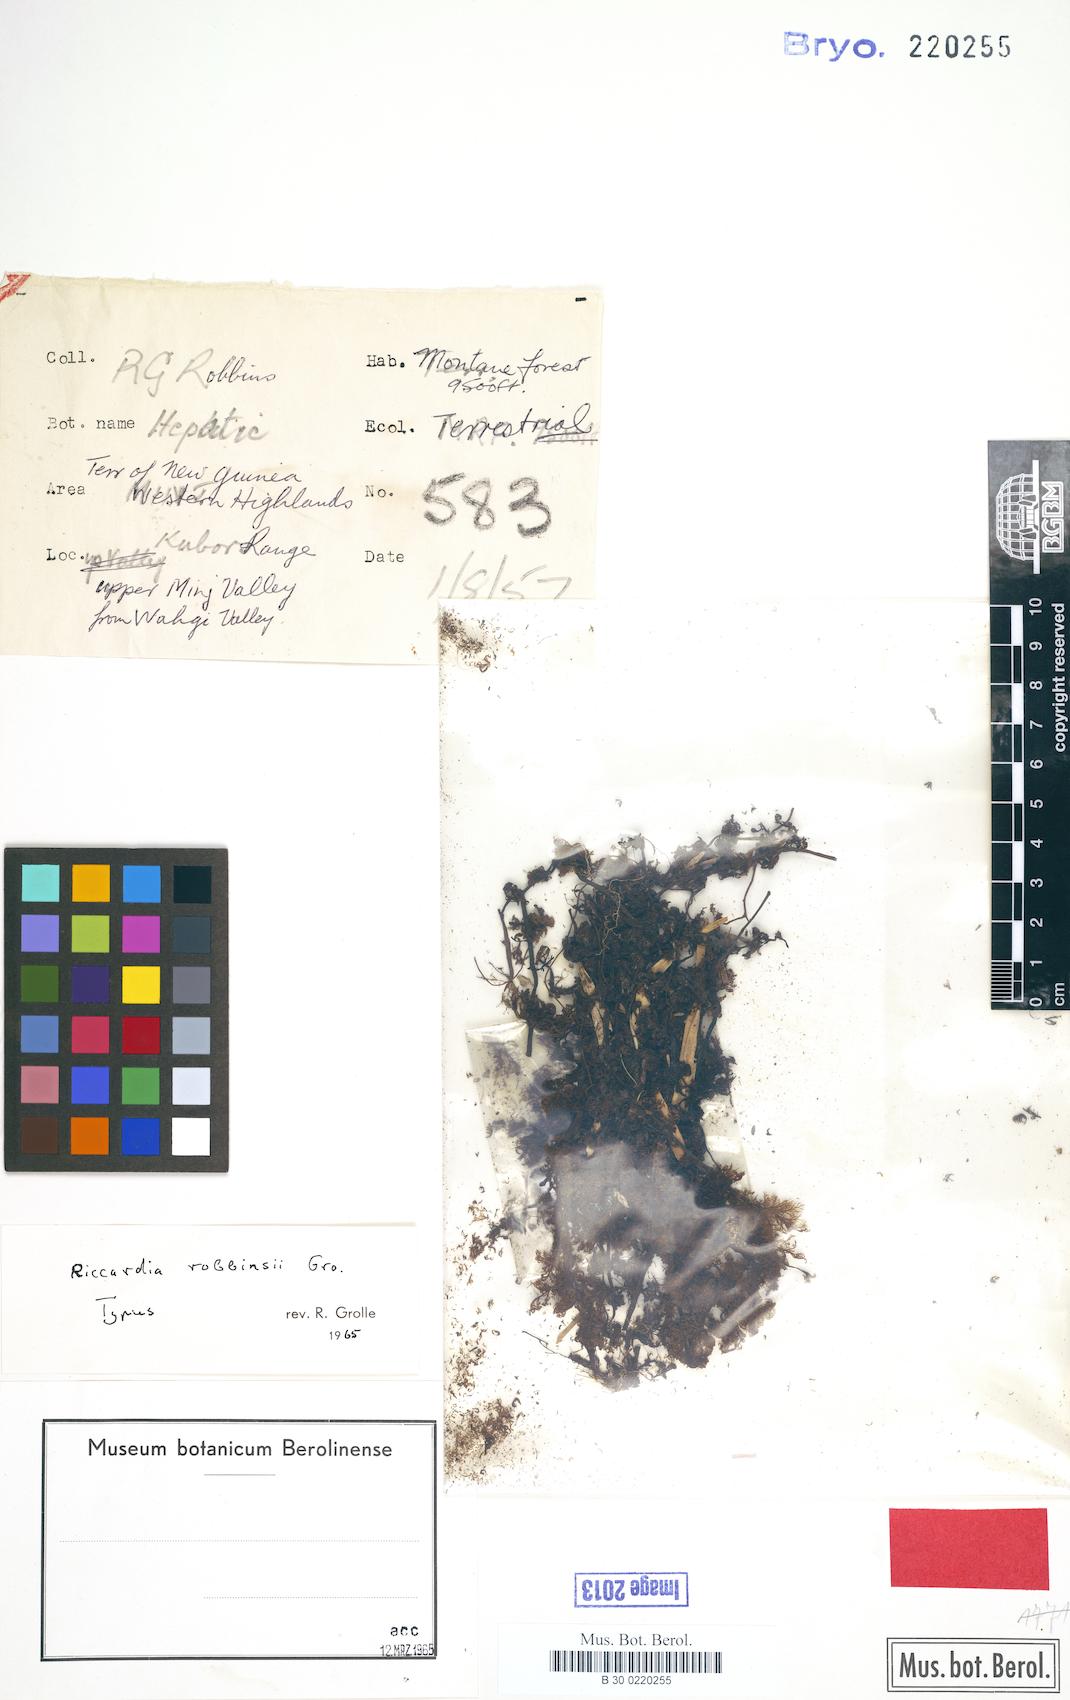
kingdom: Plantae
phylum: Marchantiophyta
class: Jungermanniopsida
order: Metzgeriales
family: Aneuraceae
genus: Riccardia
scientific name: Riccardia robbinsii
